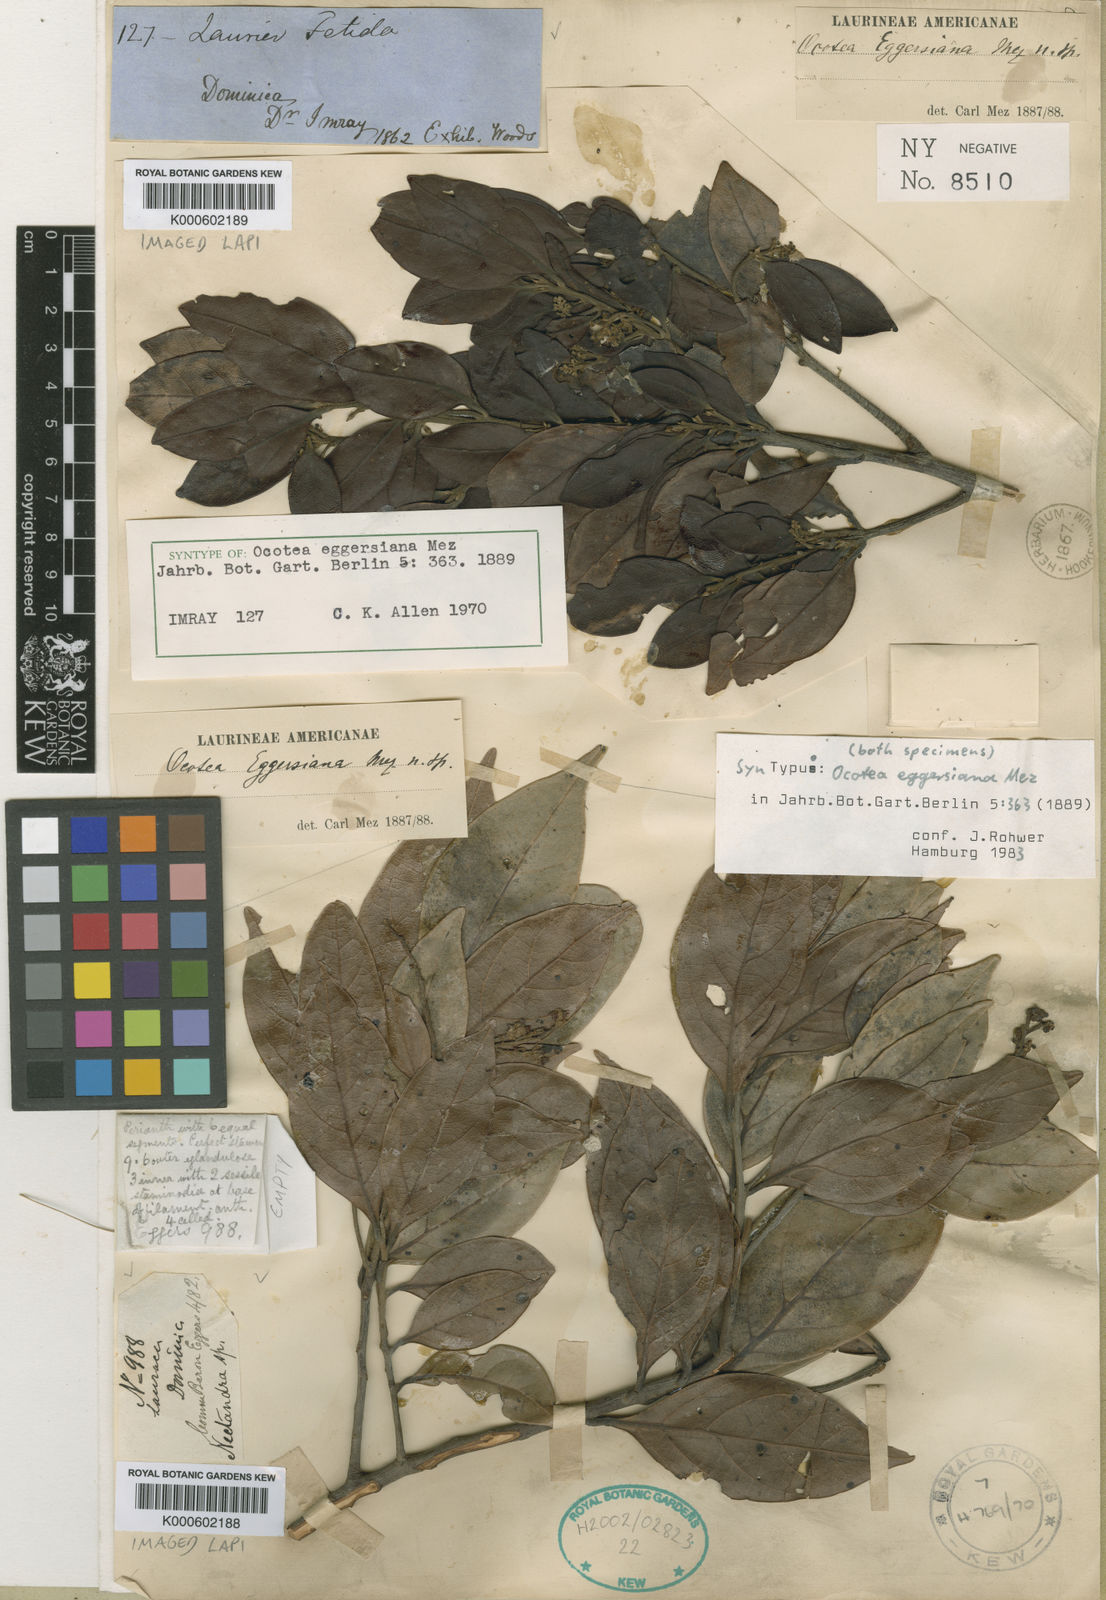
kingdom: Plantae
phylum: Tracheophyta
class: Magnoliopsida
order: Laurales
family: Lauraceae
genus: Ocotea
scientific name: Ocotea eggersiana
